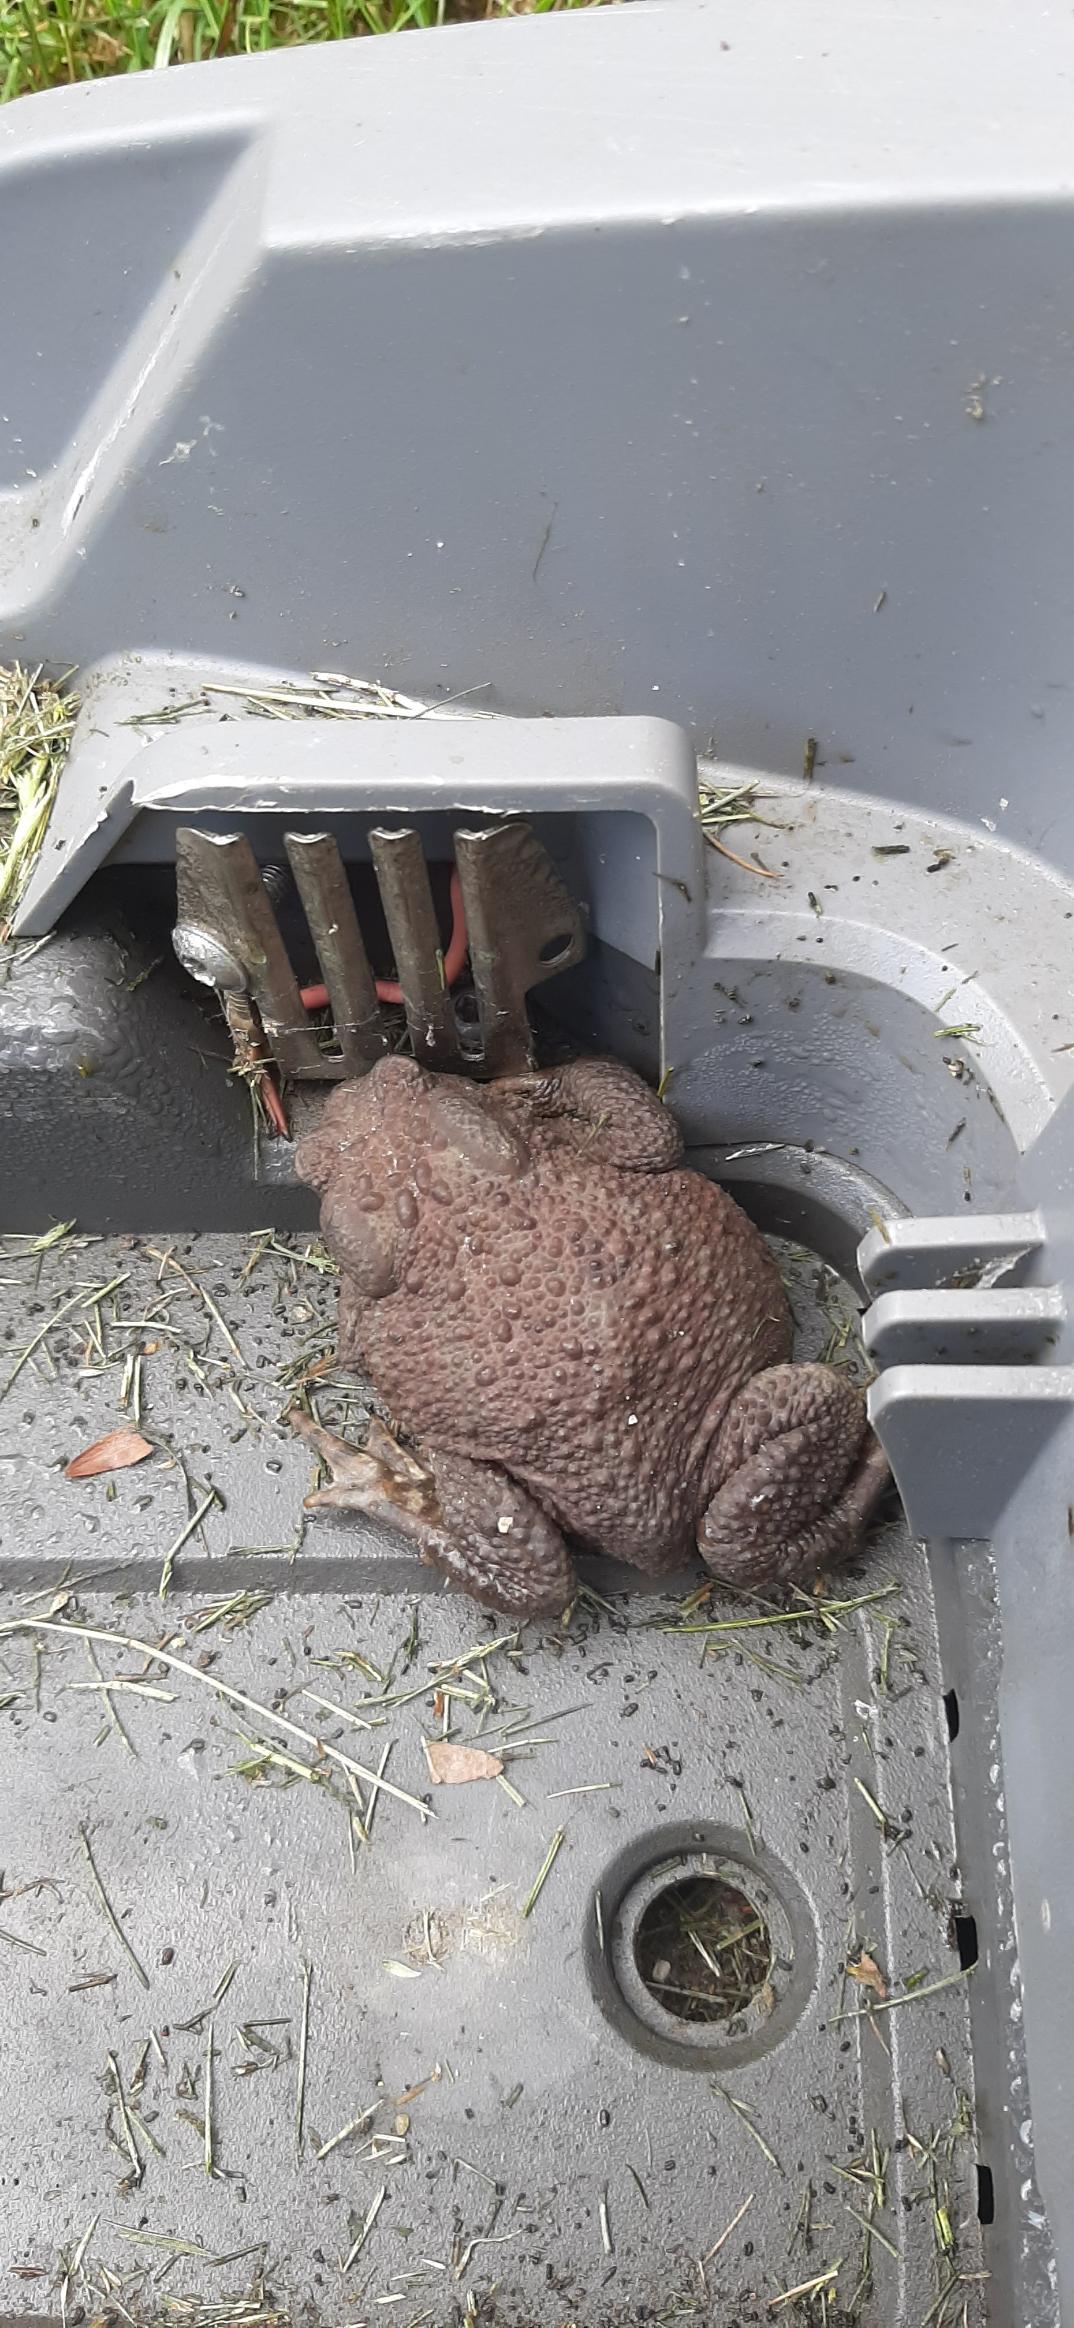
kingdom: Animalia
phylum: Chordata
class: Amphibia
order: Anura
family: Bufonidae
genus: Bufo
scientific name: Bufo bufo
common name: Skrubtudse
